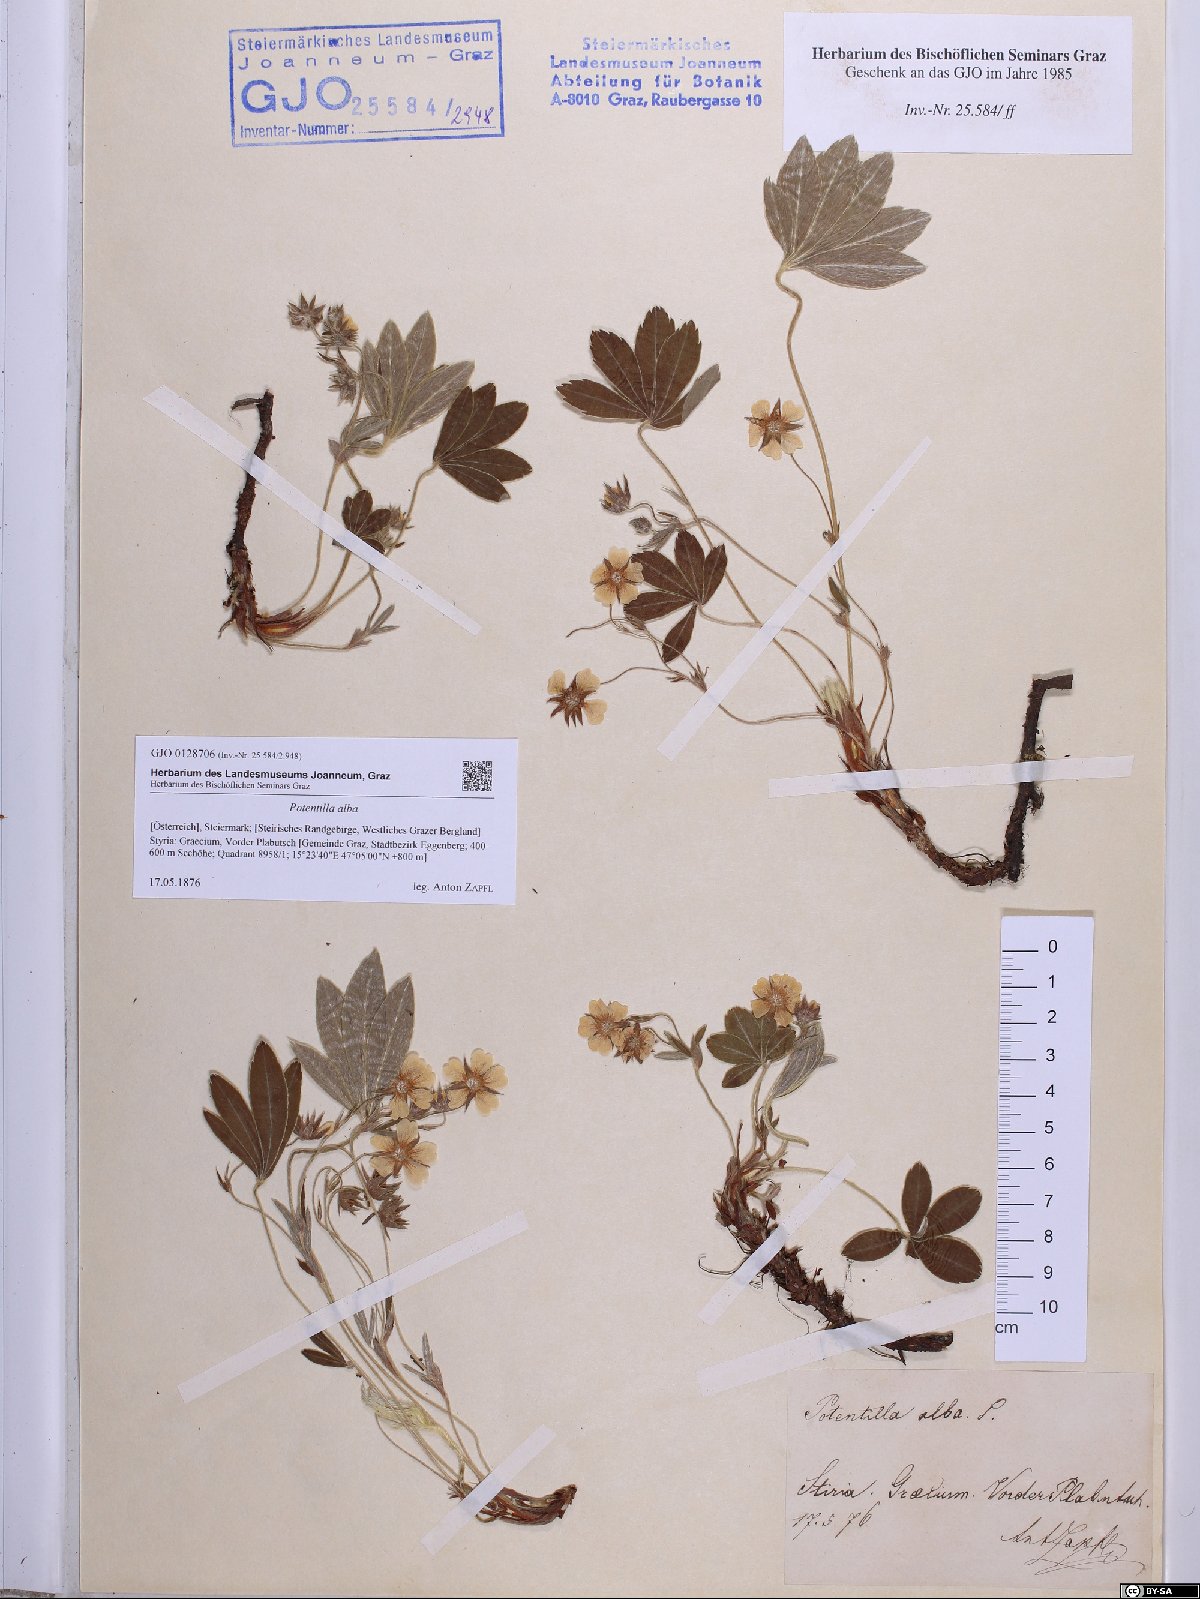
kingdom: Plantae
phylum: Tracheophyta
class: Magnoliopsida
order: Rosales
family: Rosaceae
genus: Potentilla
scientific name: Potentilla alba
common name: White cinquefoil
